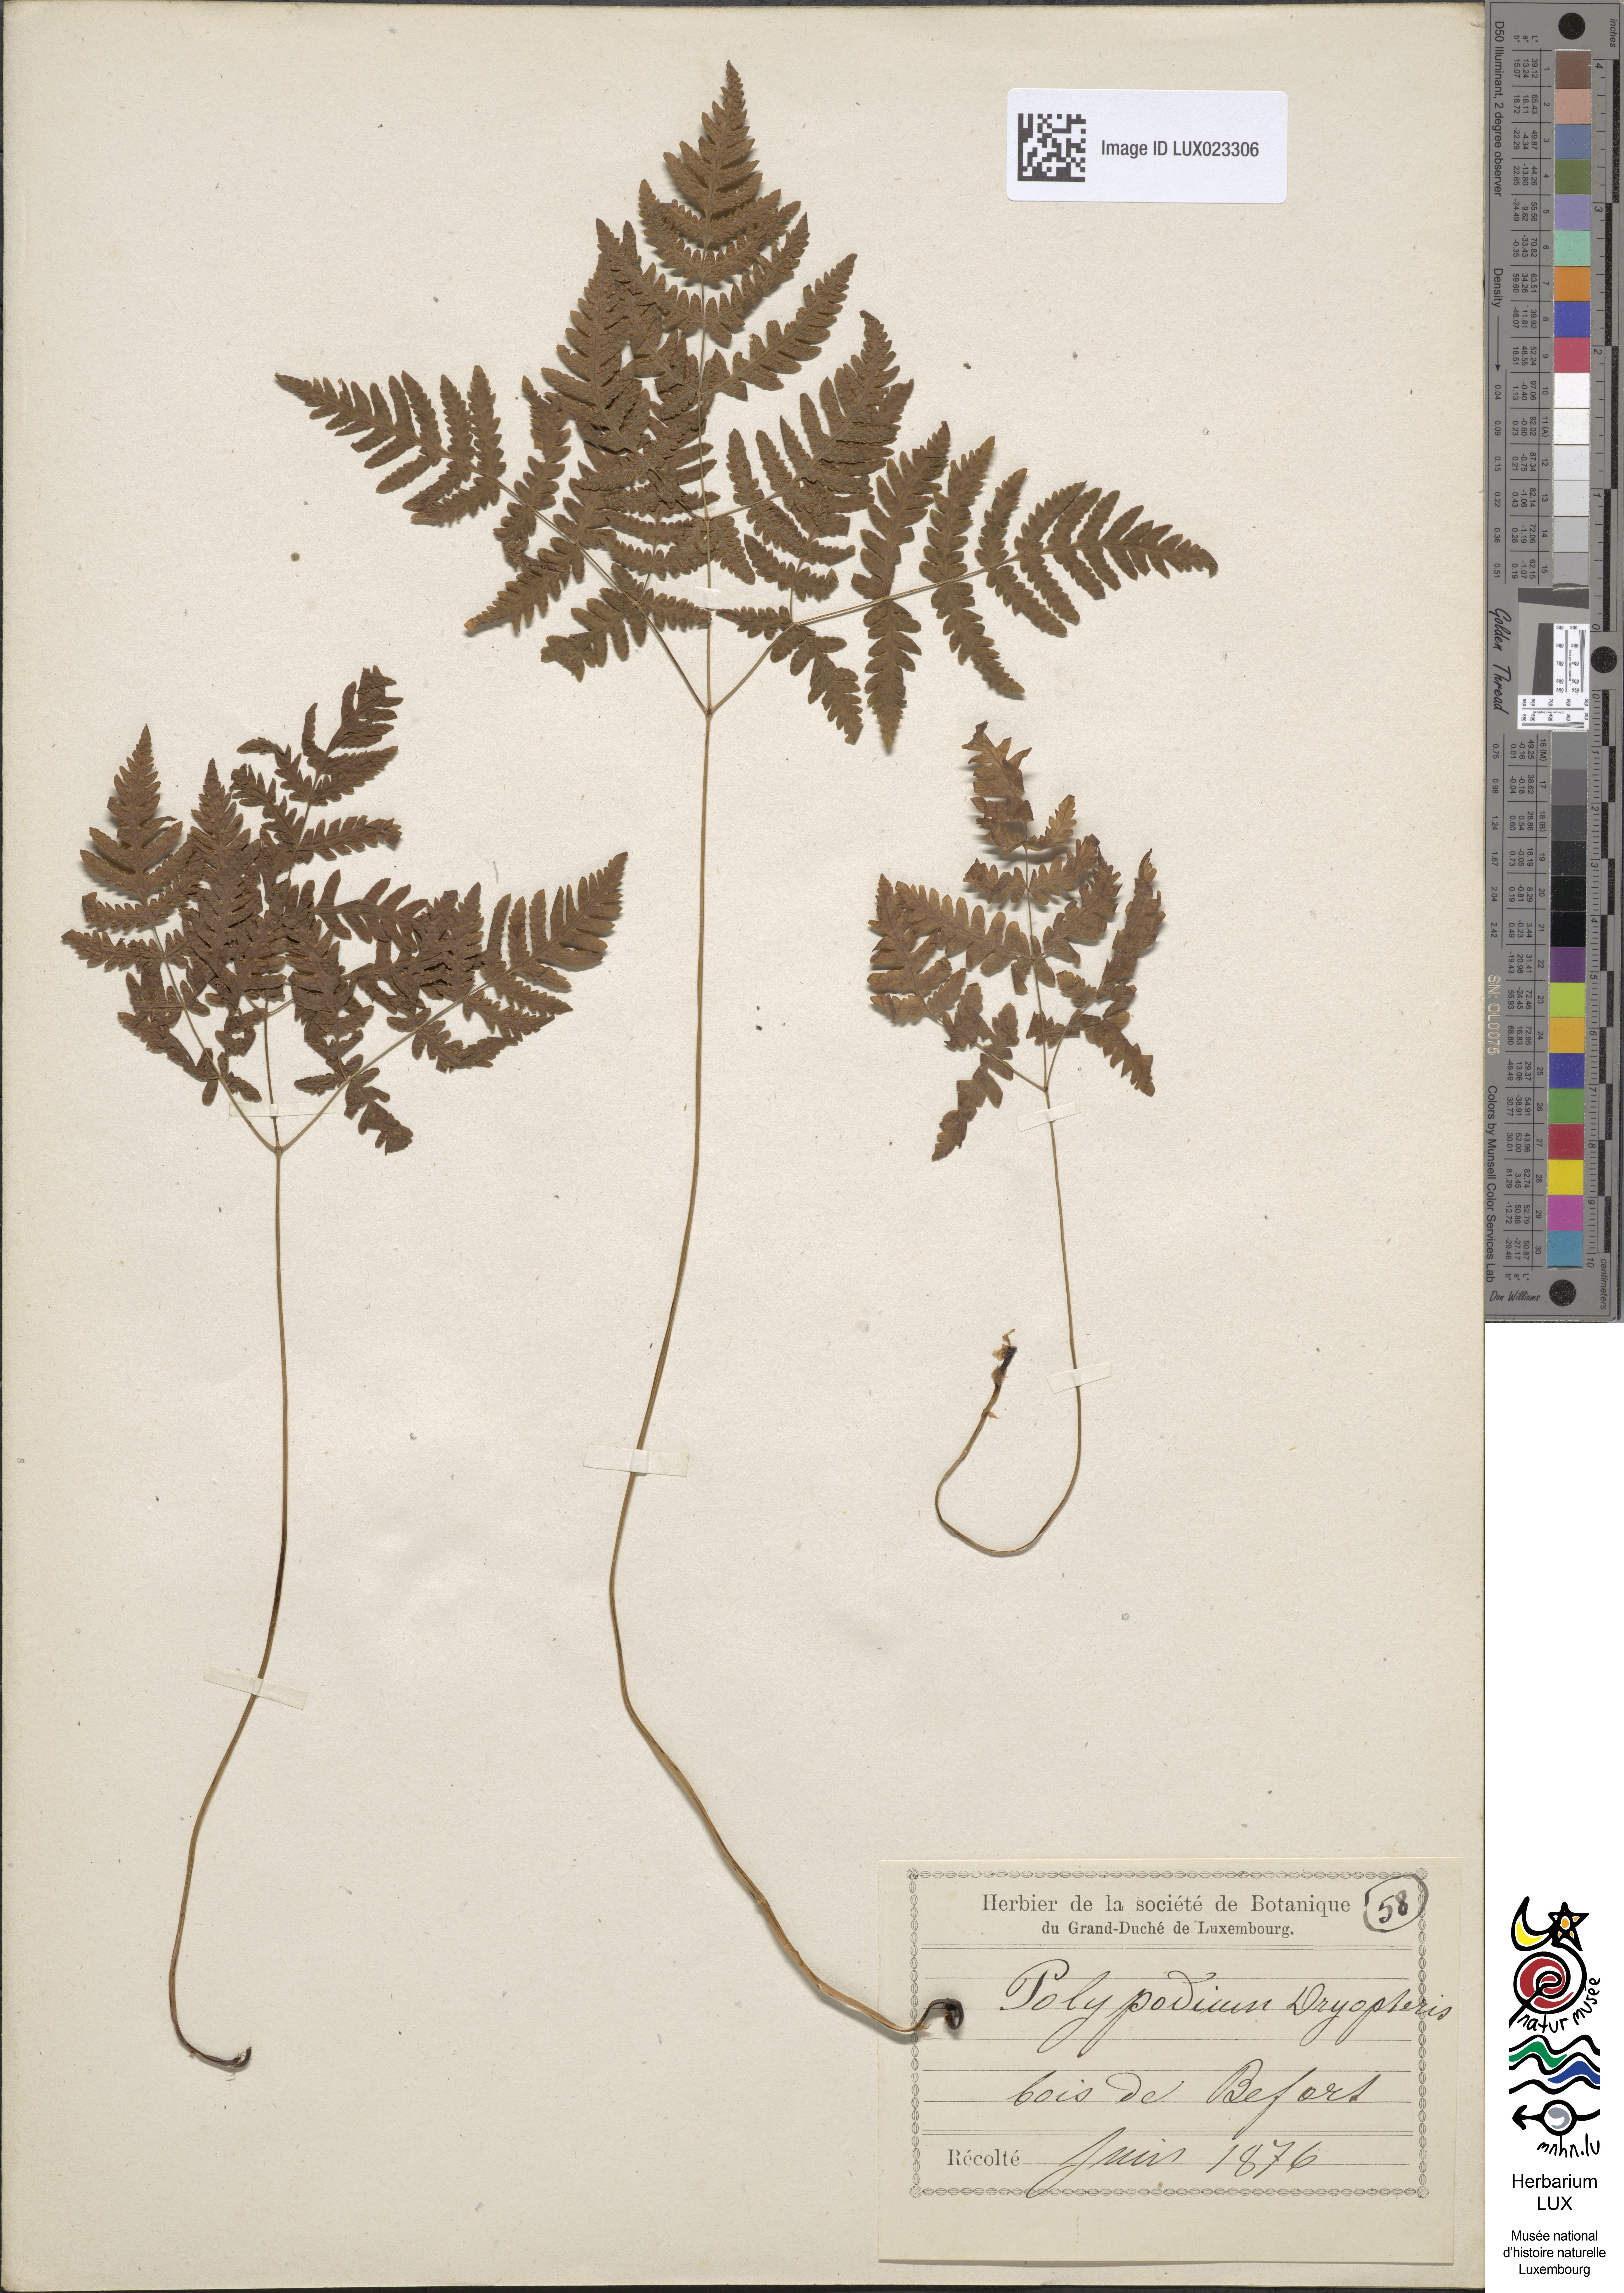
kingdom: Plantae
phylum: Tracheophyta
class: Polypodiopsida
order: Polypodiales
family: Cystopteridaceae
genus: Gymnocarpium
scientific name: Gymnocarpium dryopteris
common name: Oak fern
